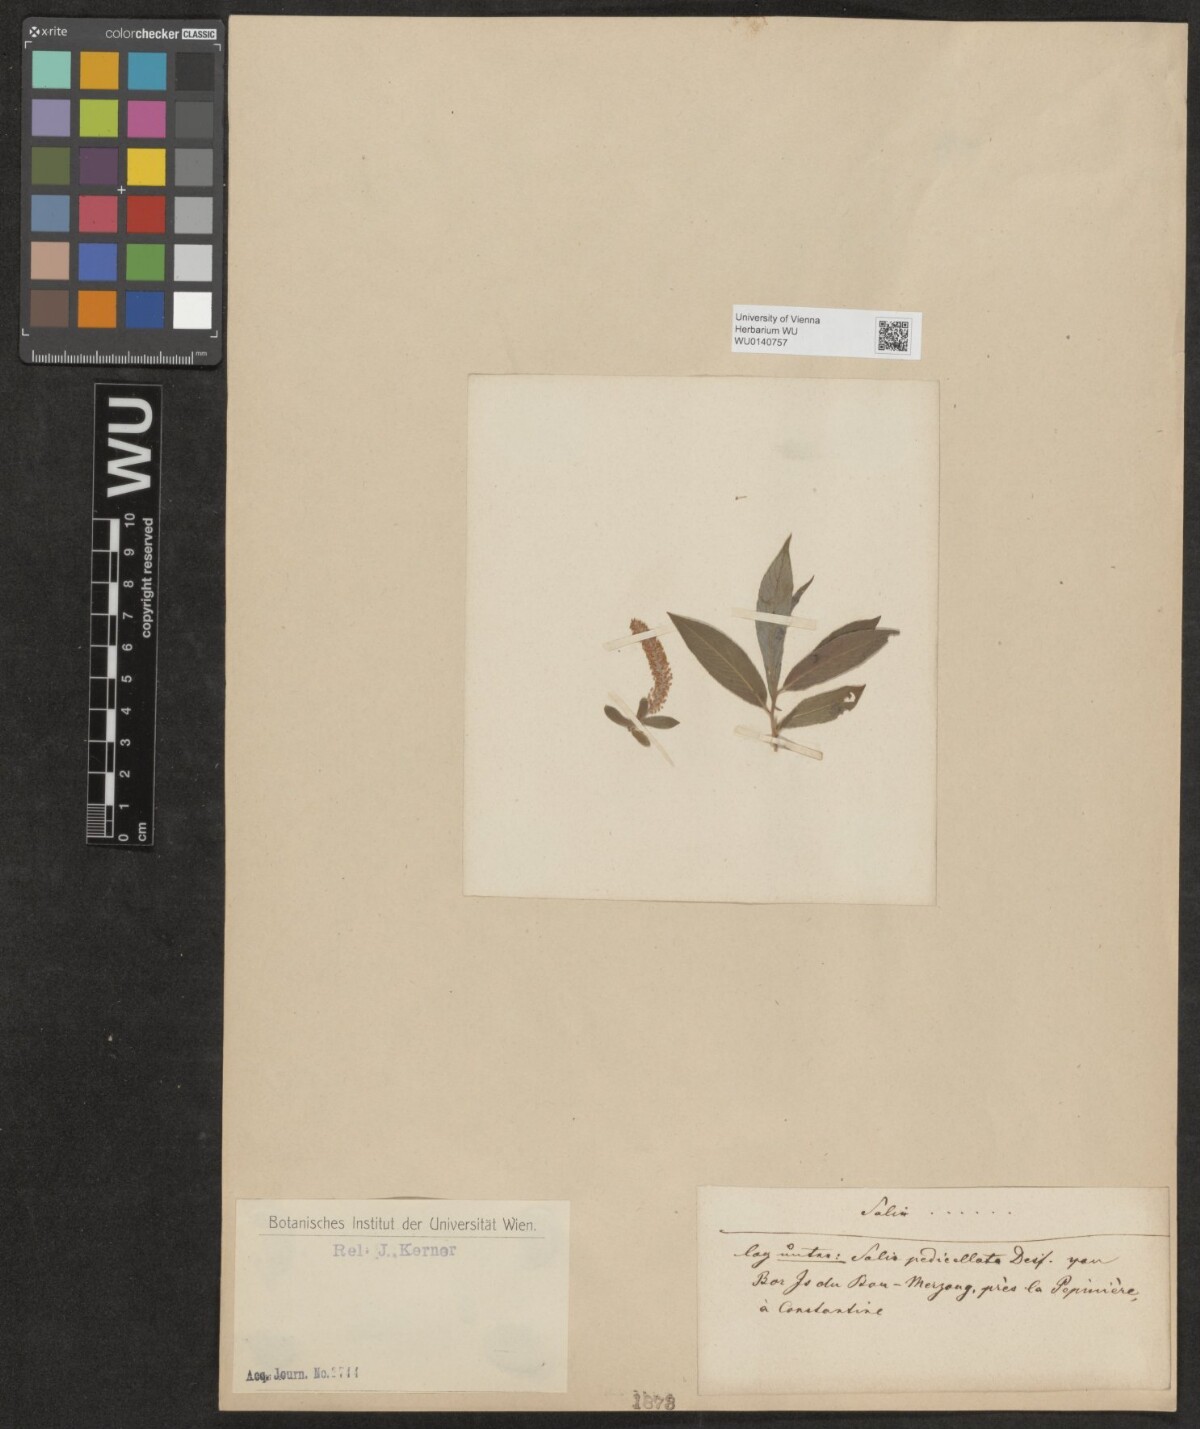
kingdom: Plantae
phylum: Tracheophyta
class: Magnoliopsida
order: Malpighiales
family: Salicaceae
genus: Salix
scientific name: Salix
